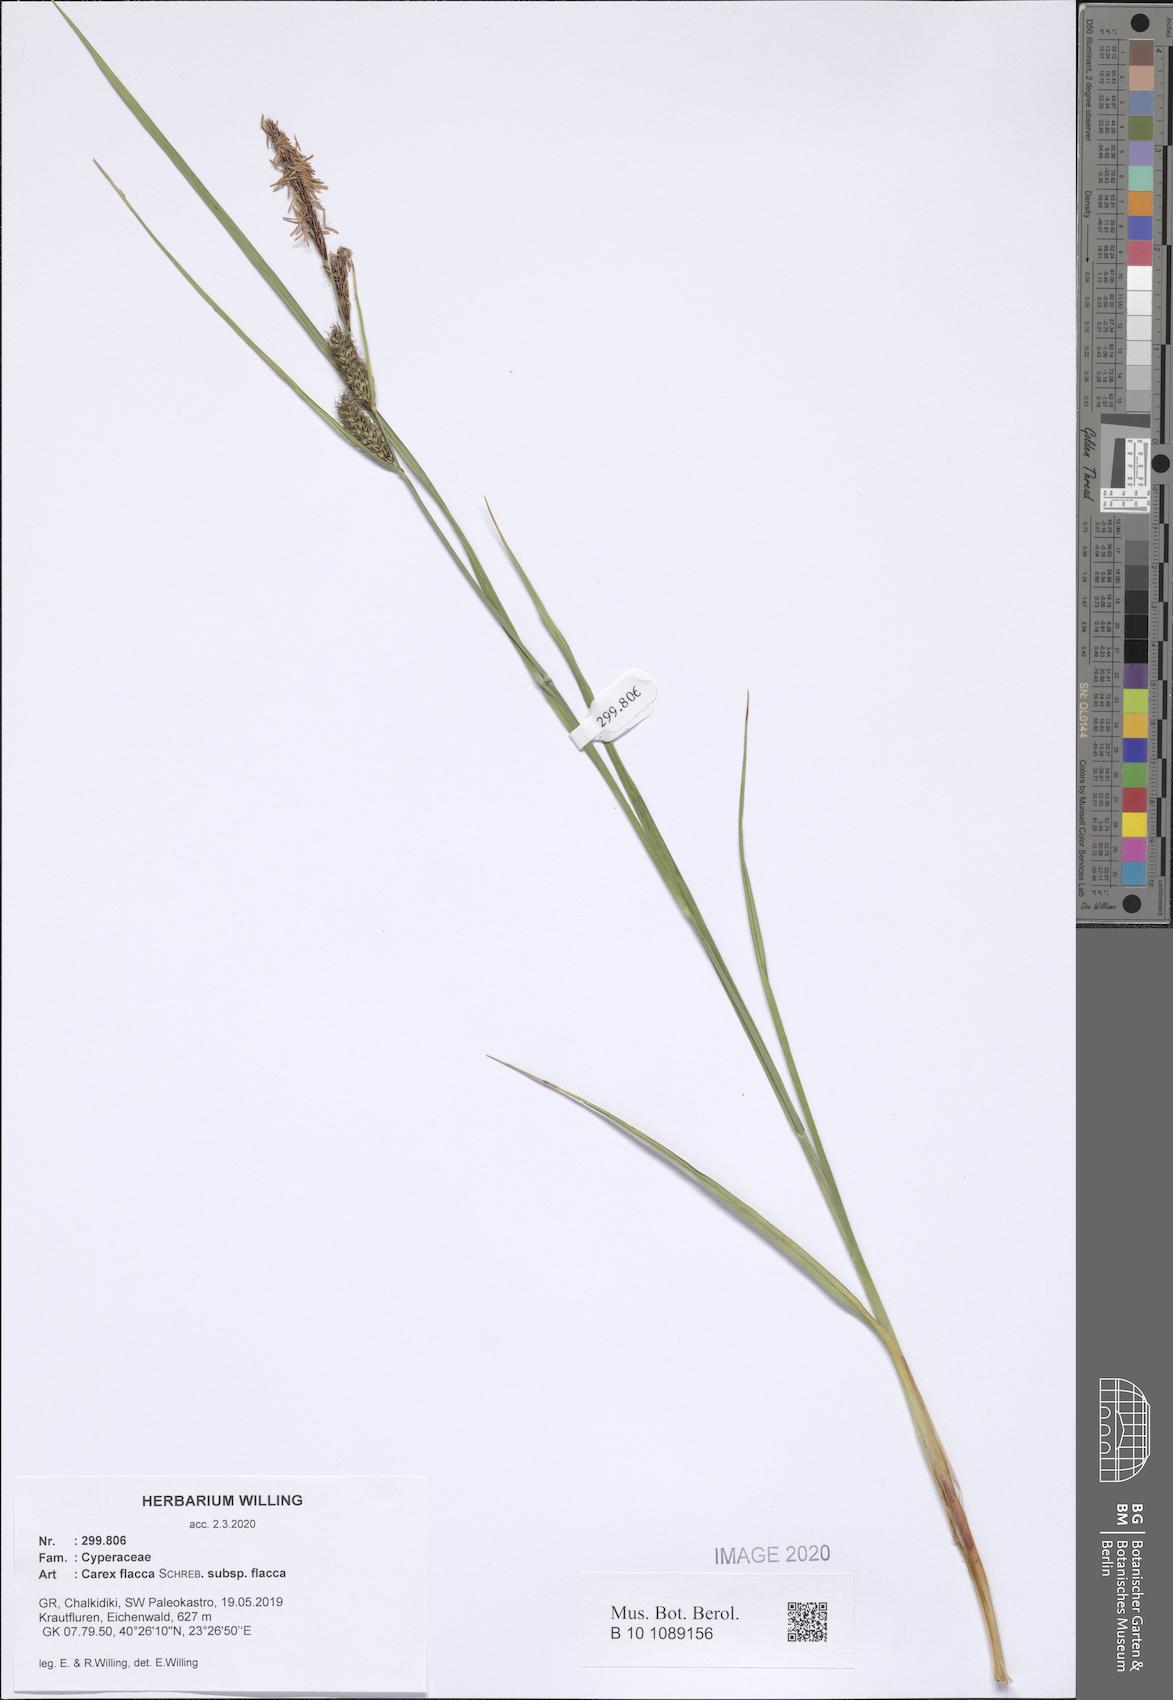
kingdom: Plantae
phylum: Tracheophyta
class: Liliopsida
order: Poales
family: Cyperaceae
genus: Carex
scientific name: Carex flacca
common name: Glaucous sedge
